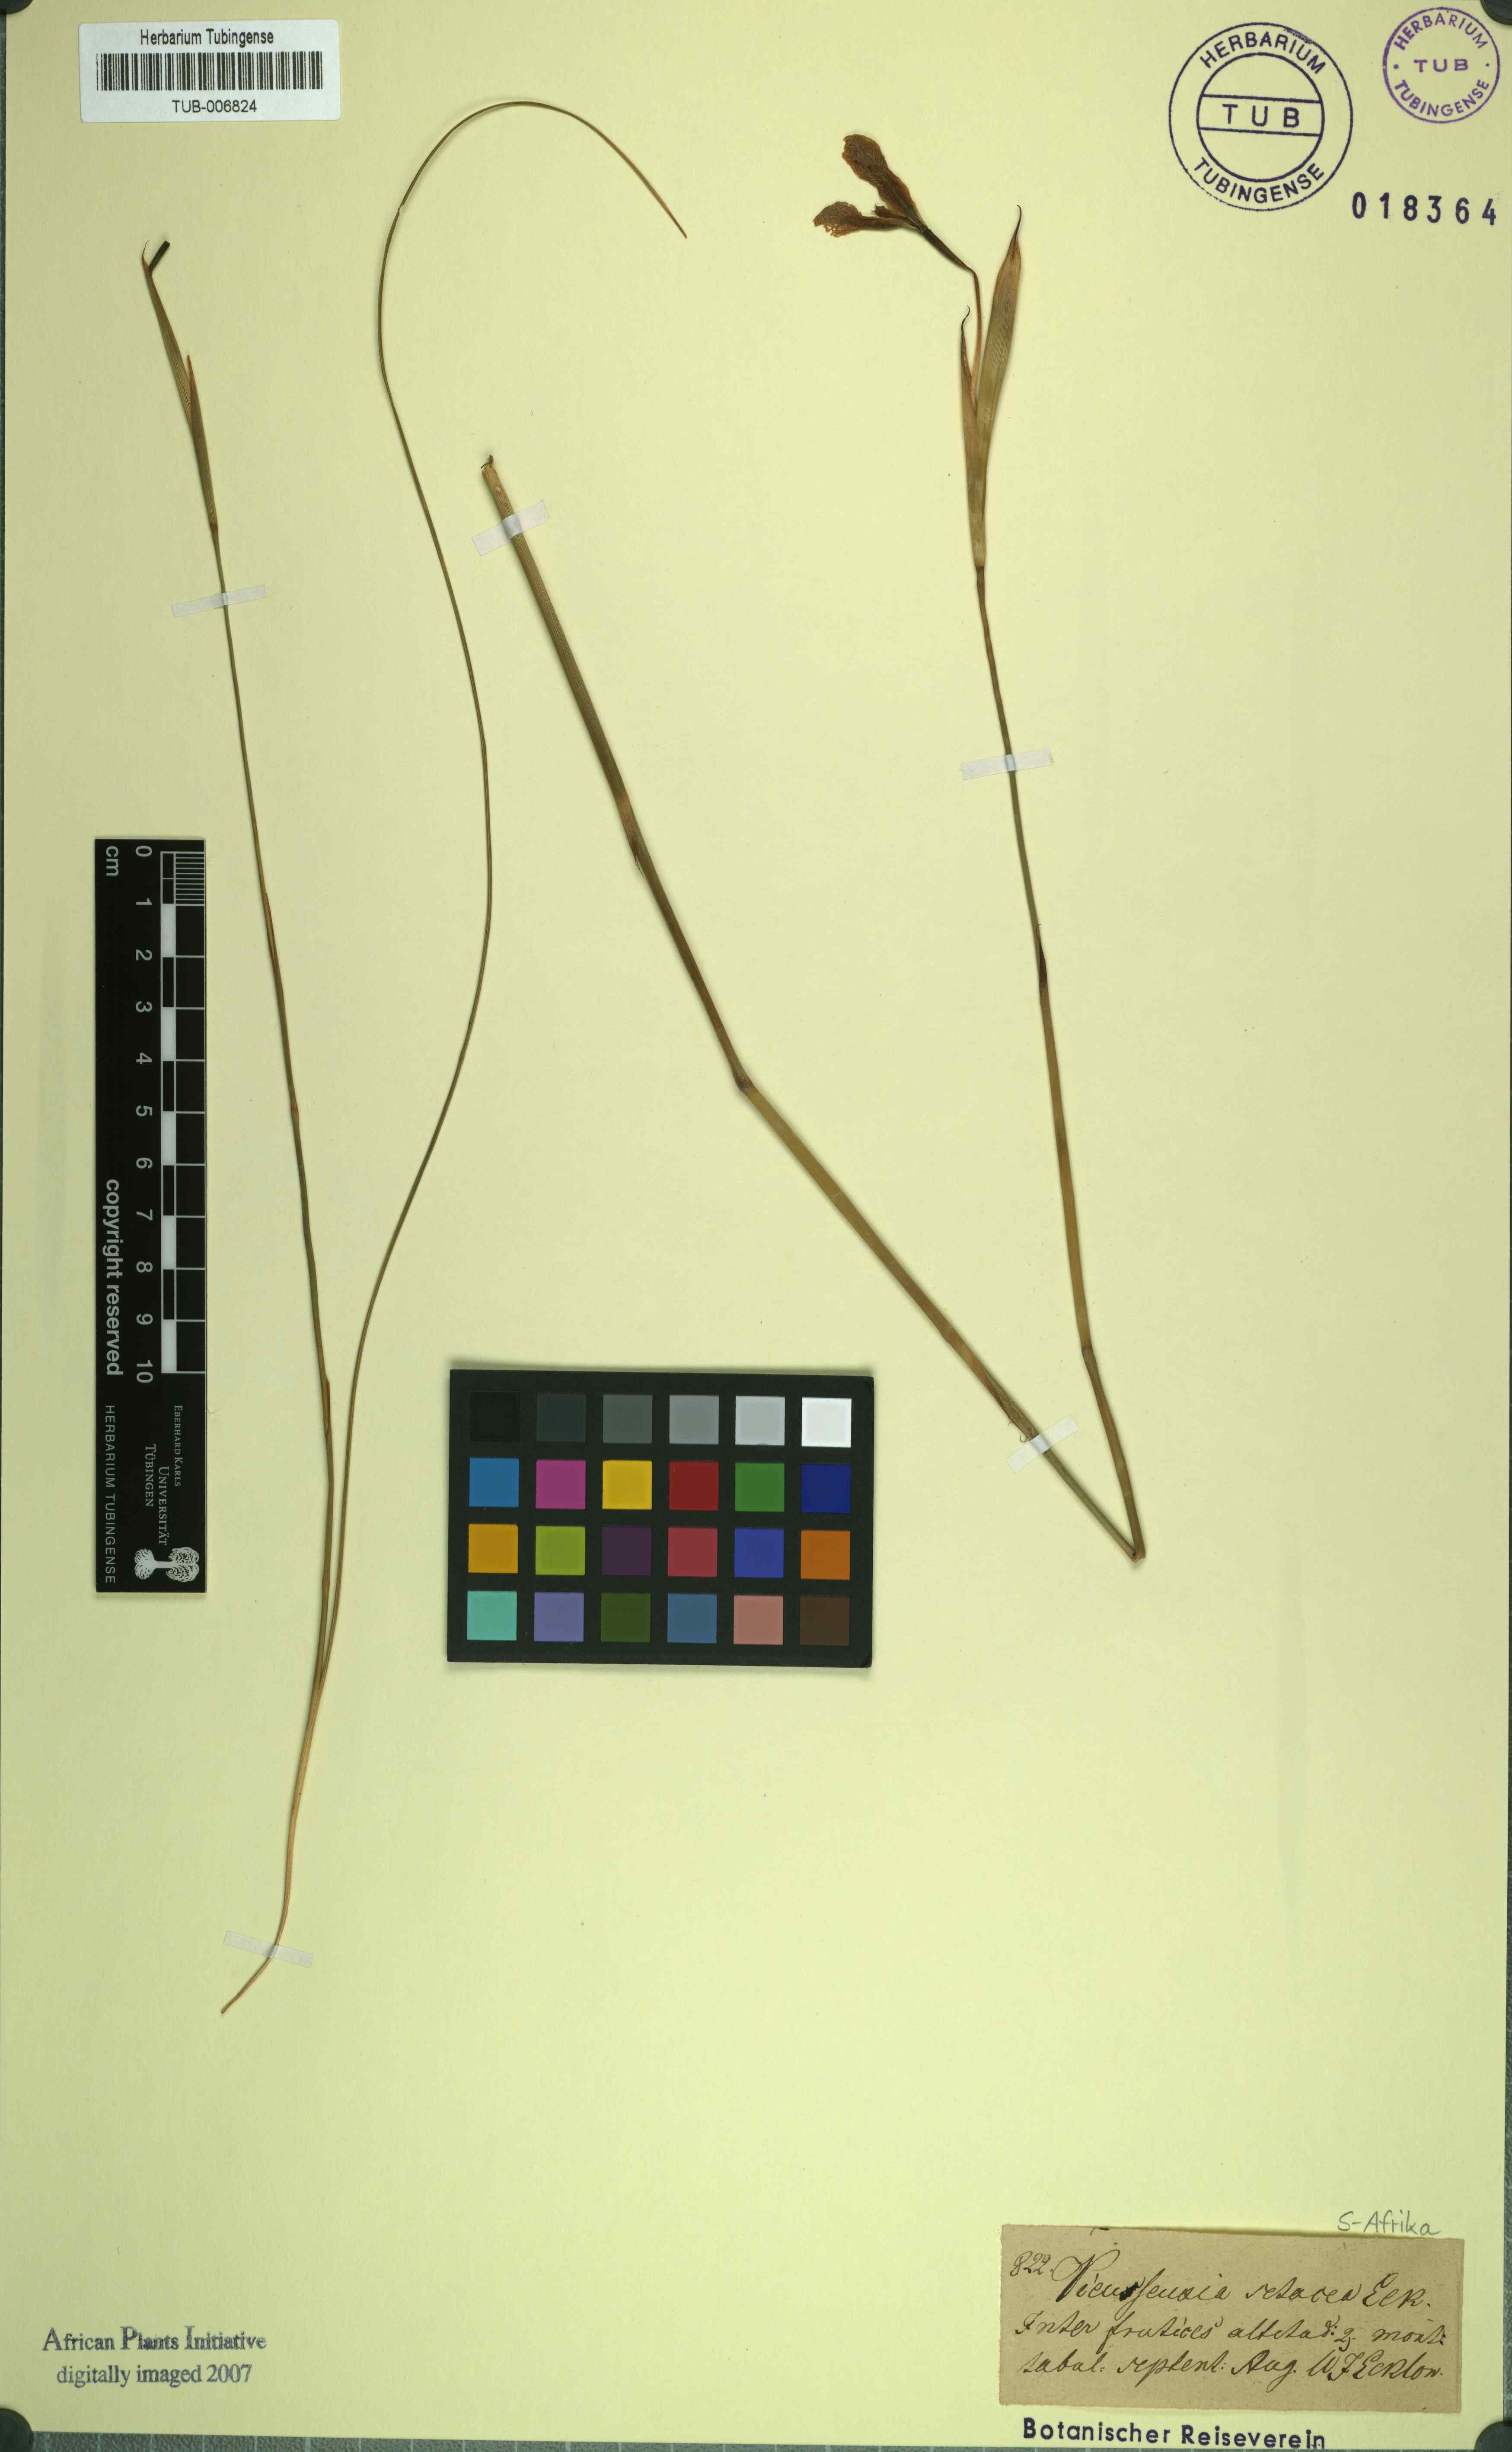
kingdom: Plantae
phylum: Tracheophyta
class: Liliopsida
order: Asparagales
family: Iridaceae
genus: Moraea
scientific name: Moraea setifolia
